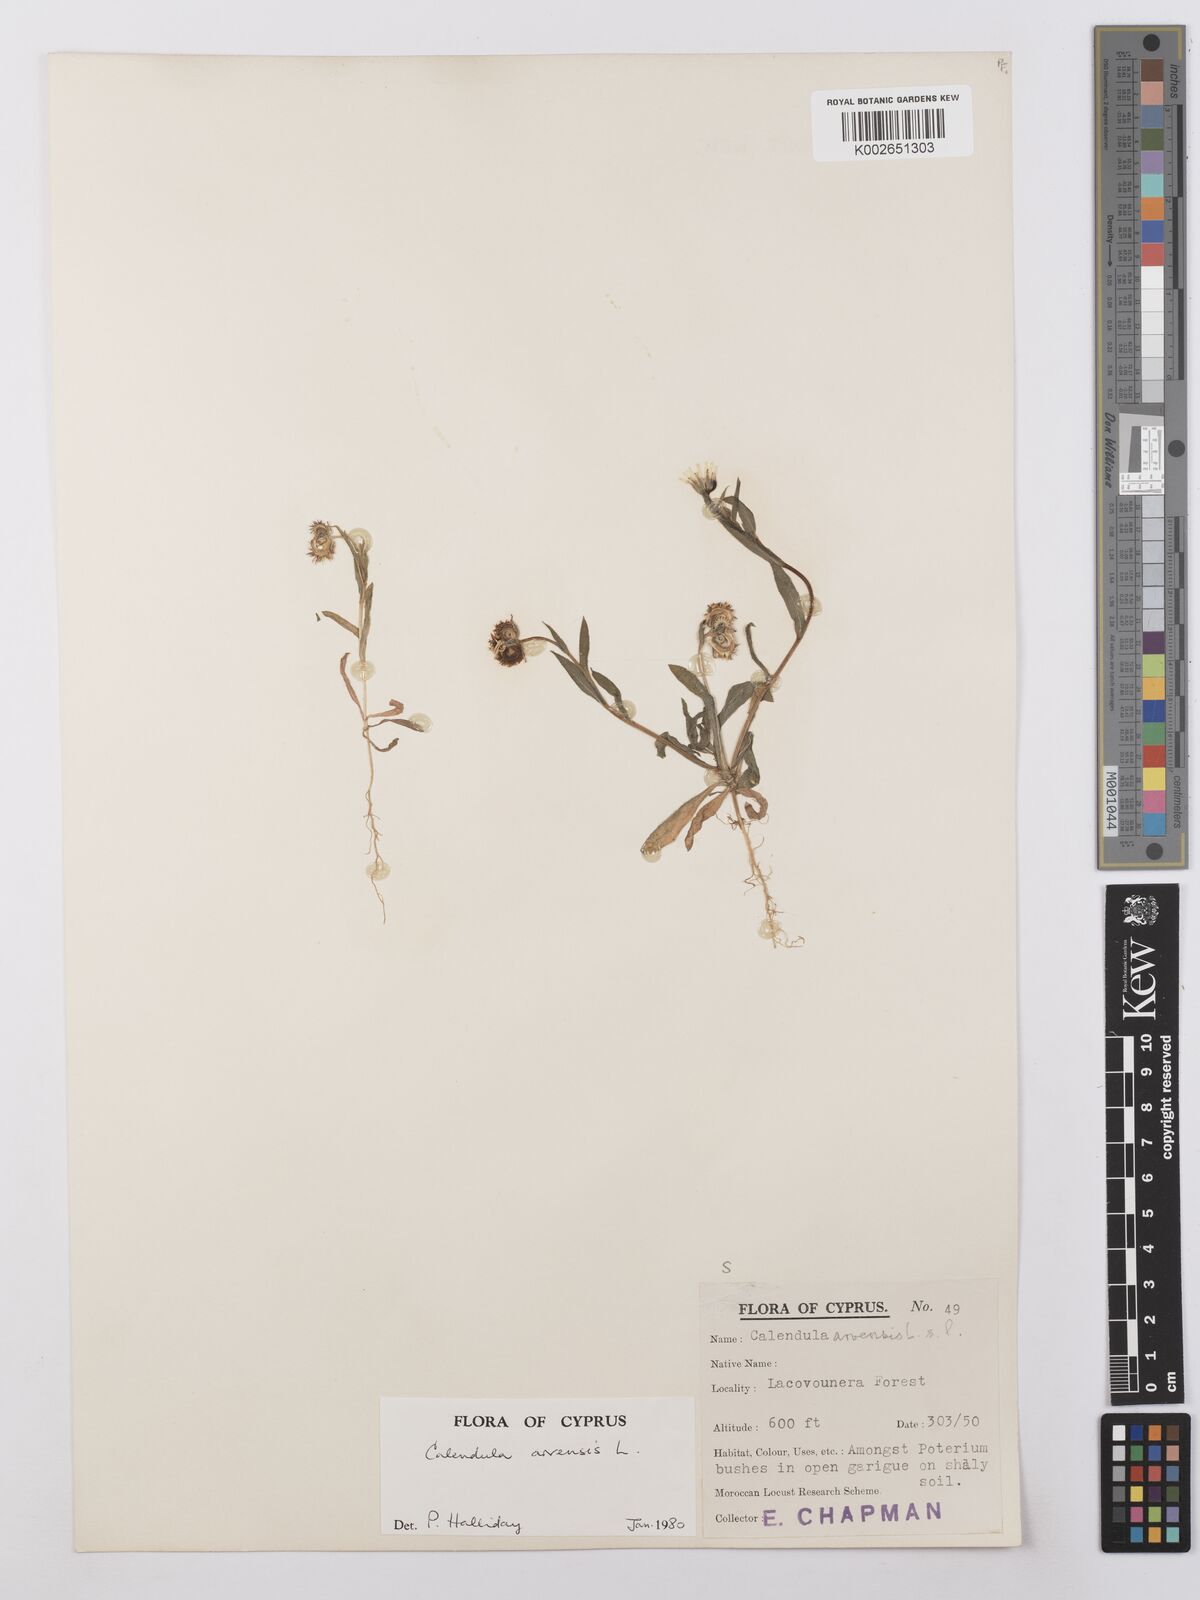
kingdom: Plantae
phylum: Tracheophyta
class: Magnoliopsida
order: Asterales
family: Asteraceae
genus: Calendula
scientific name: Calendula arvensis
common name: Field marigold
